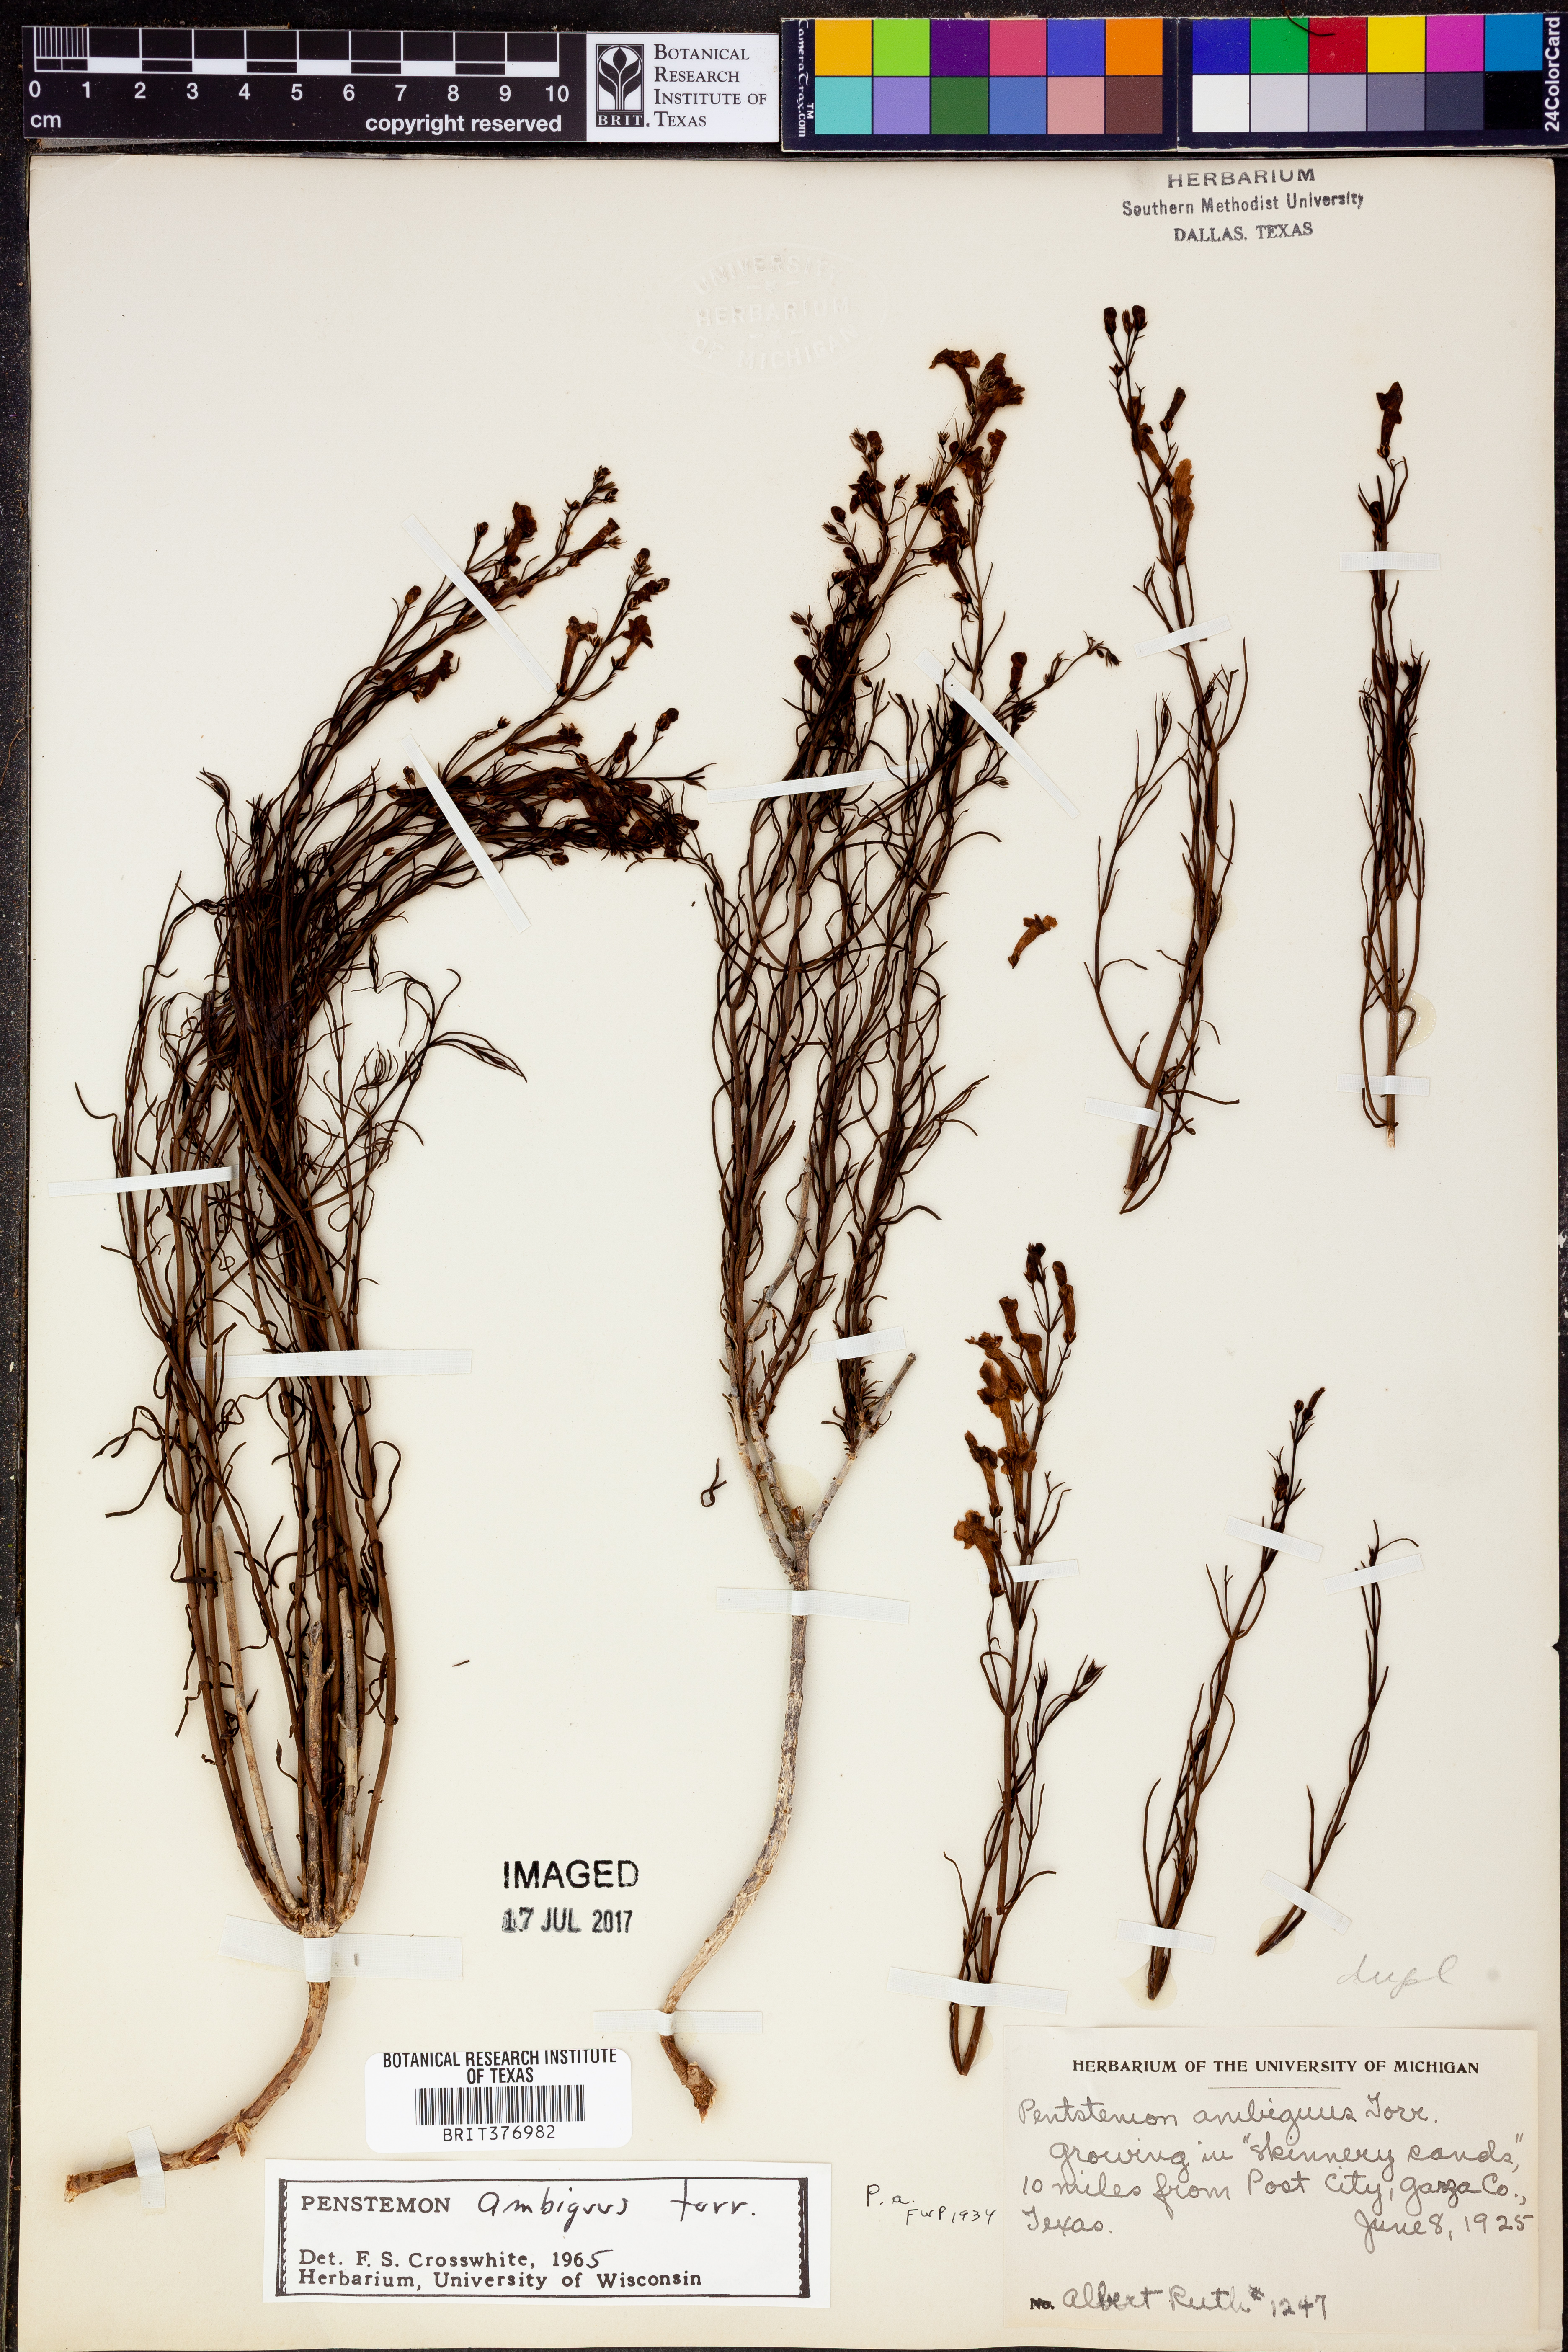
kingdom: Plantae
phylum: Tracheophyta
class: Magnoliopsida
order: Lamiales
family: Plantaginaceae
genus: Penstemon
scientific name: Penstemon ambiguus
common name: Bush penstemon
